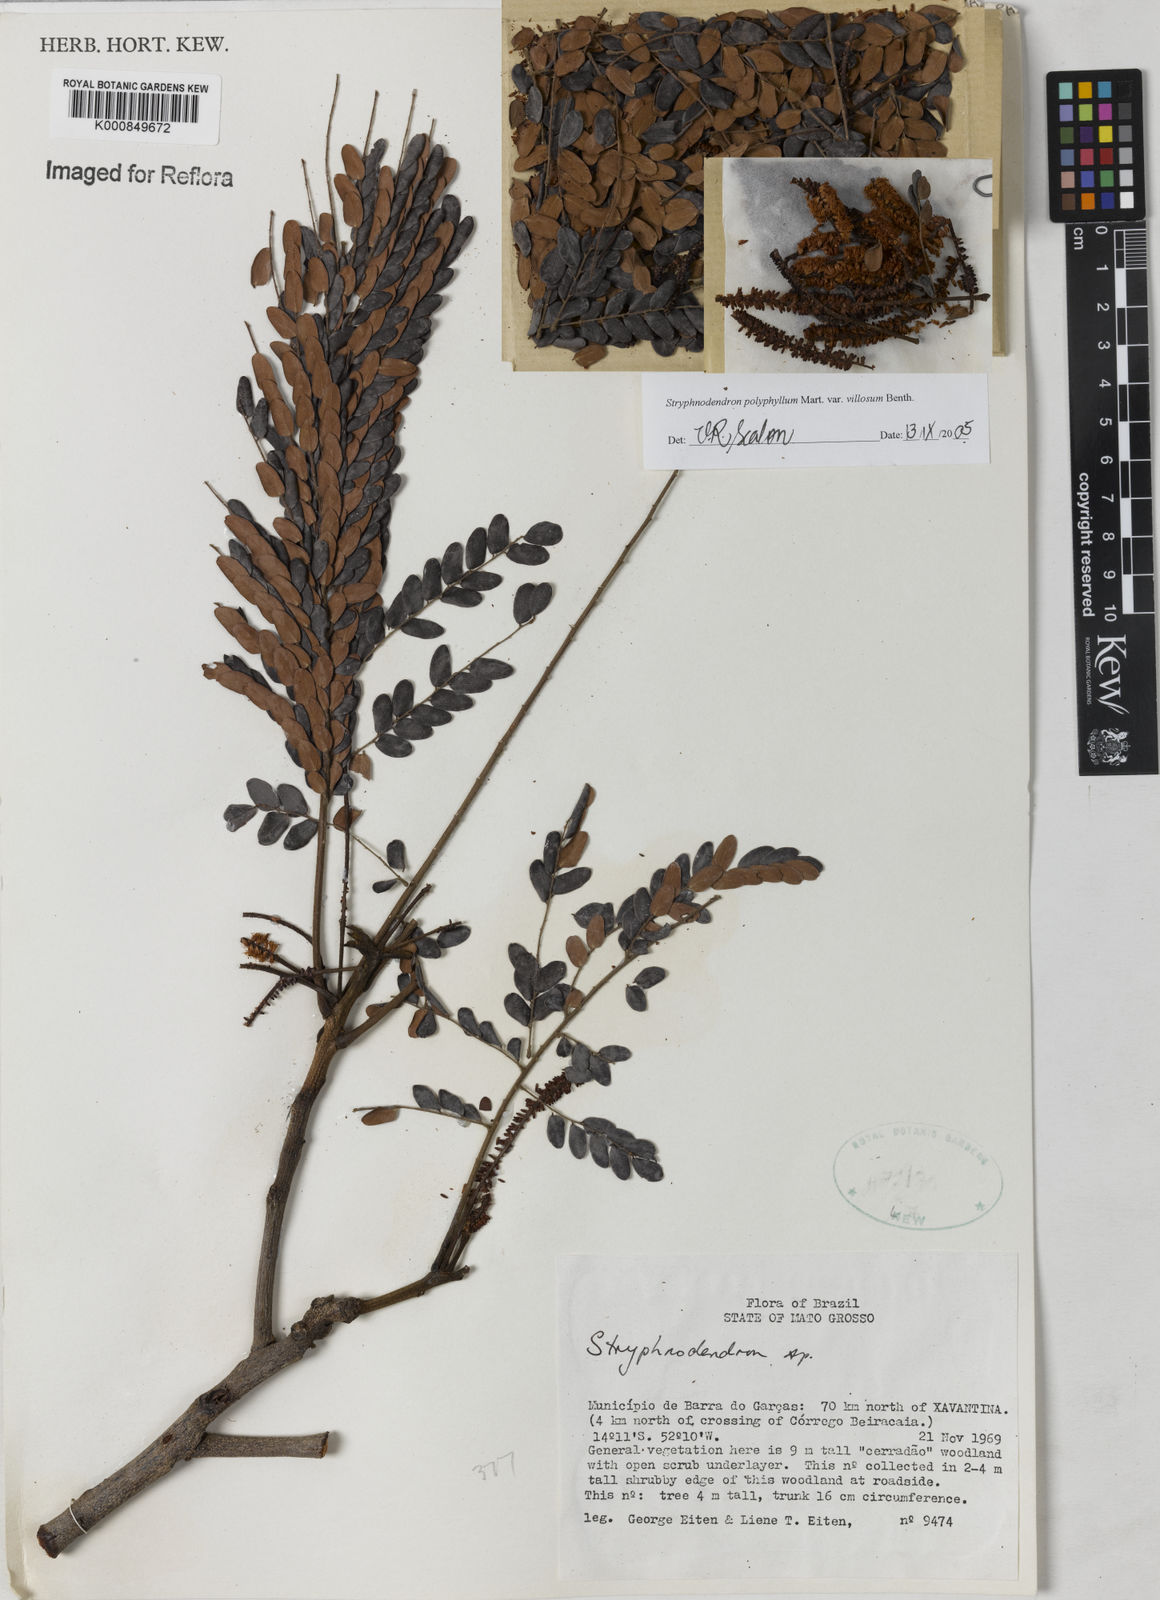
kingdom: Plantae
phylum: Tracheophyta
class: Magnoliopsida
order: Fabales
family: Fabaceae
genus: Stryphnodendron
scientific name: Stryphnodendron polyphyllum
